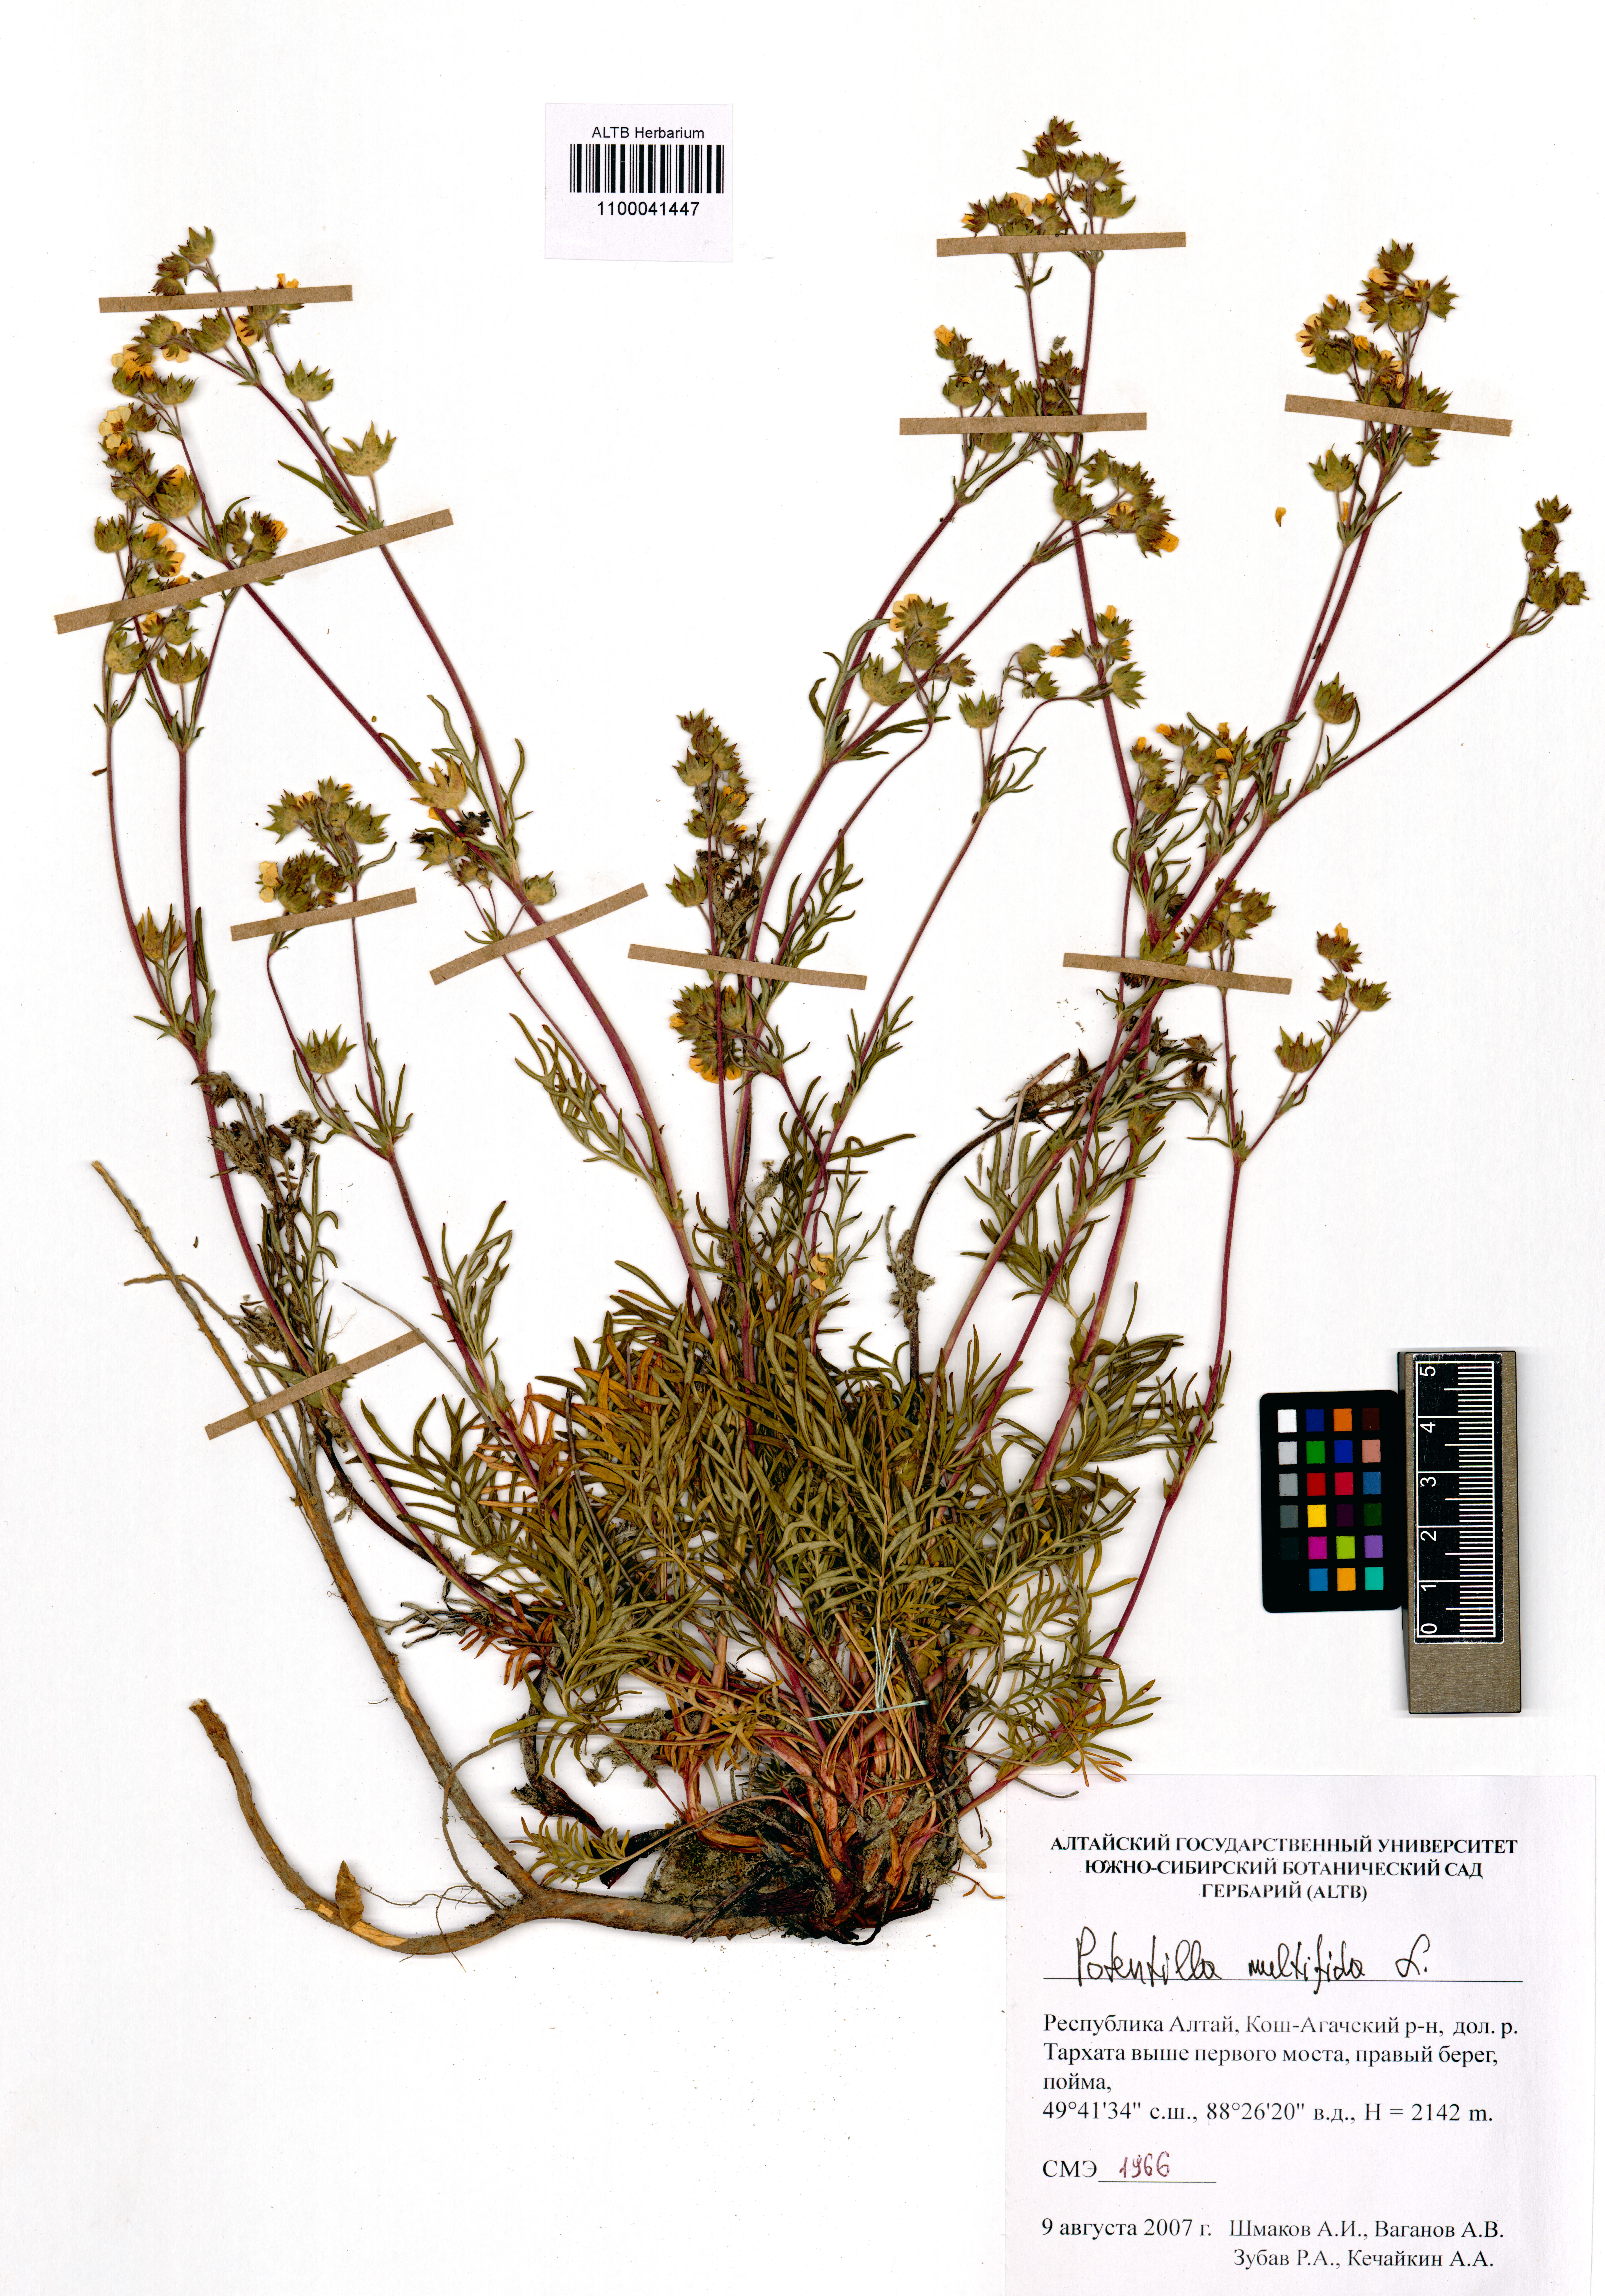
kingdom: Plantae
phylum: Tracheophyta
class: Magnoliopsida
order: Rosales
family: Rosaceae
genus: Potentilla
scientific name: Potentilla multifida
